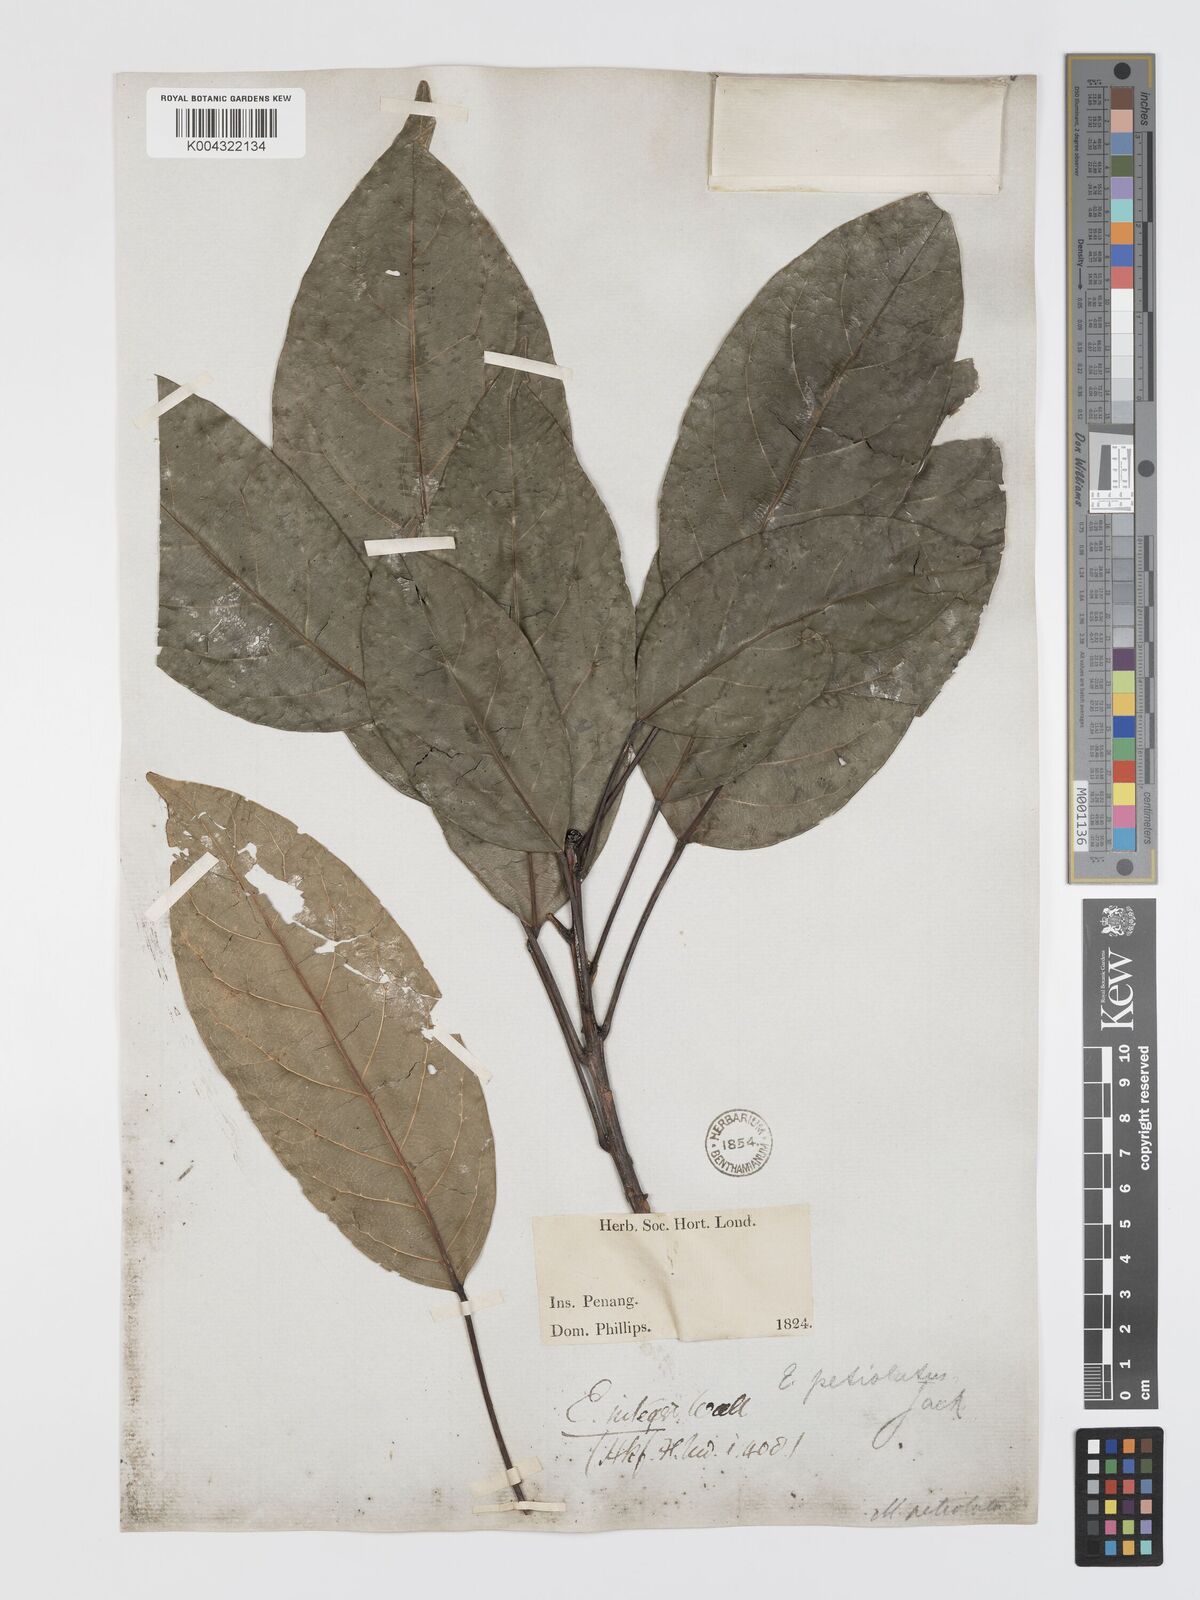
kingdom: Plantae
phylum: Tracheophyta
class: Magnoliopsida
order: Oxalidales
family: Elaeocarpaceae
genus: Elaeocarpus
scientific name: Elaeocarpus petiolatus
